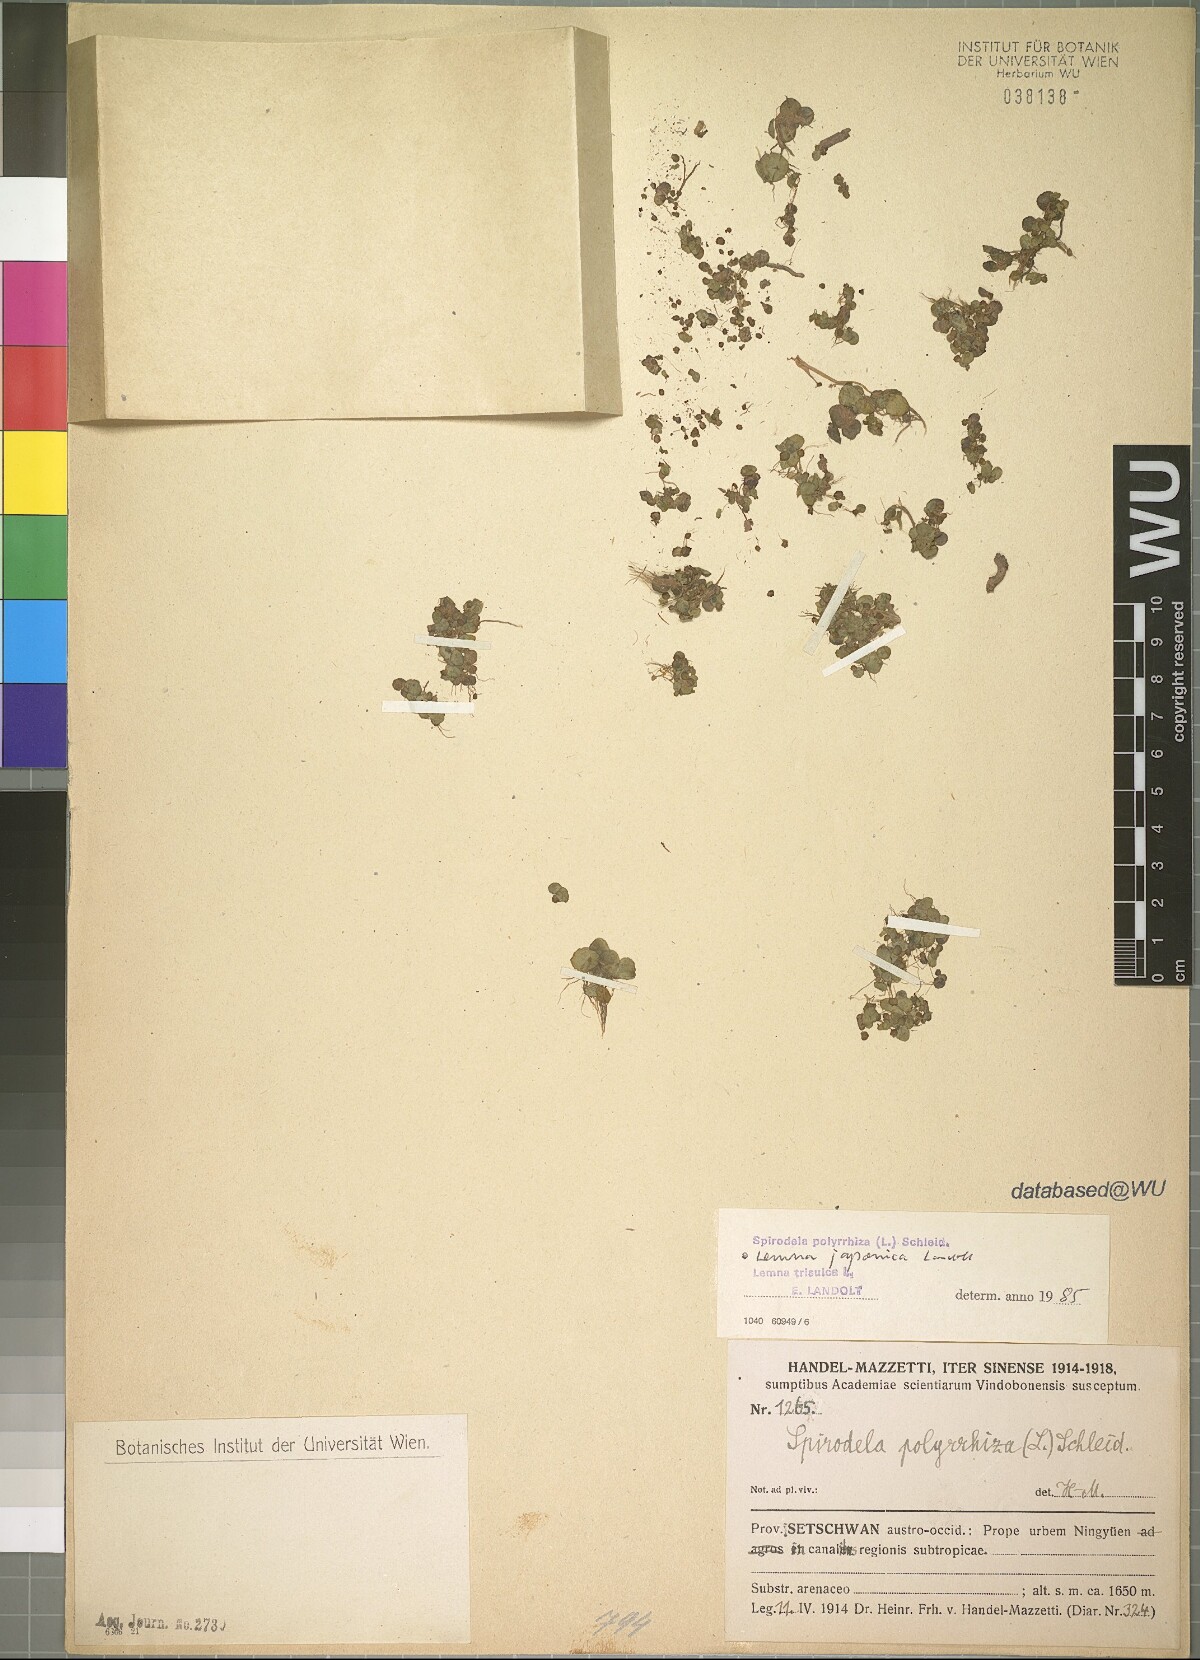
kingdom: Plantae
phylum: Tracheophyta
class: Liliopsida
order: Alismatales
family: Araceae
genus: Lemna
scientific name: Lemna japonica
